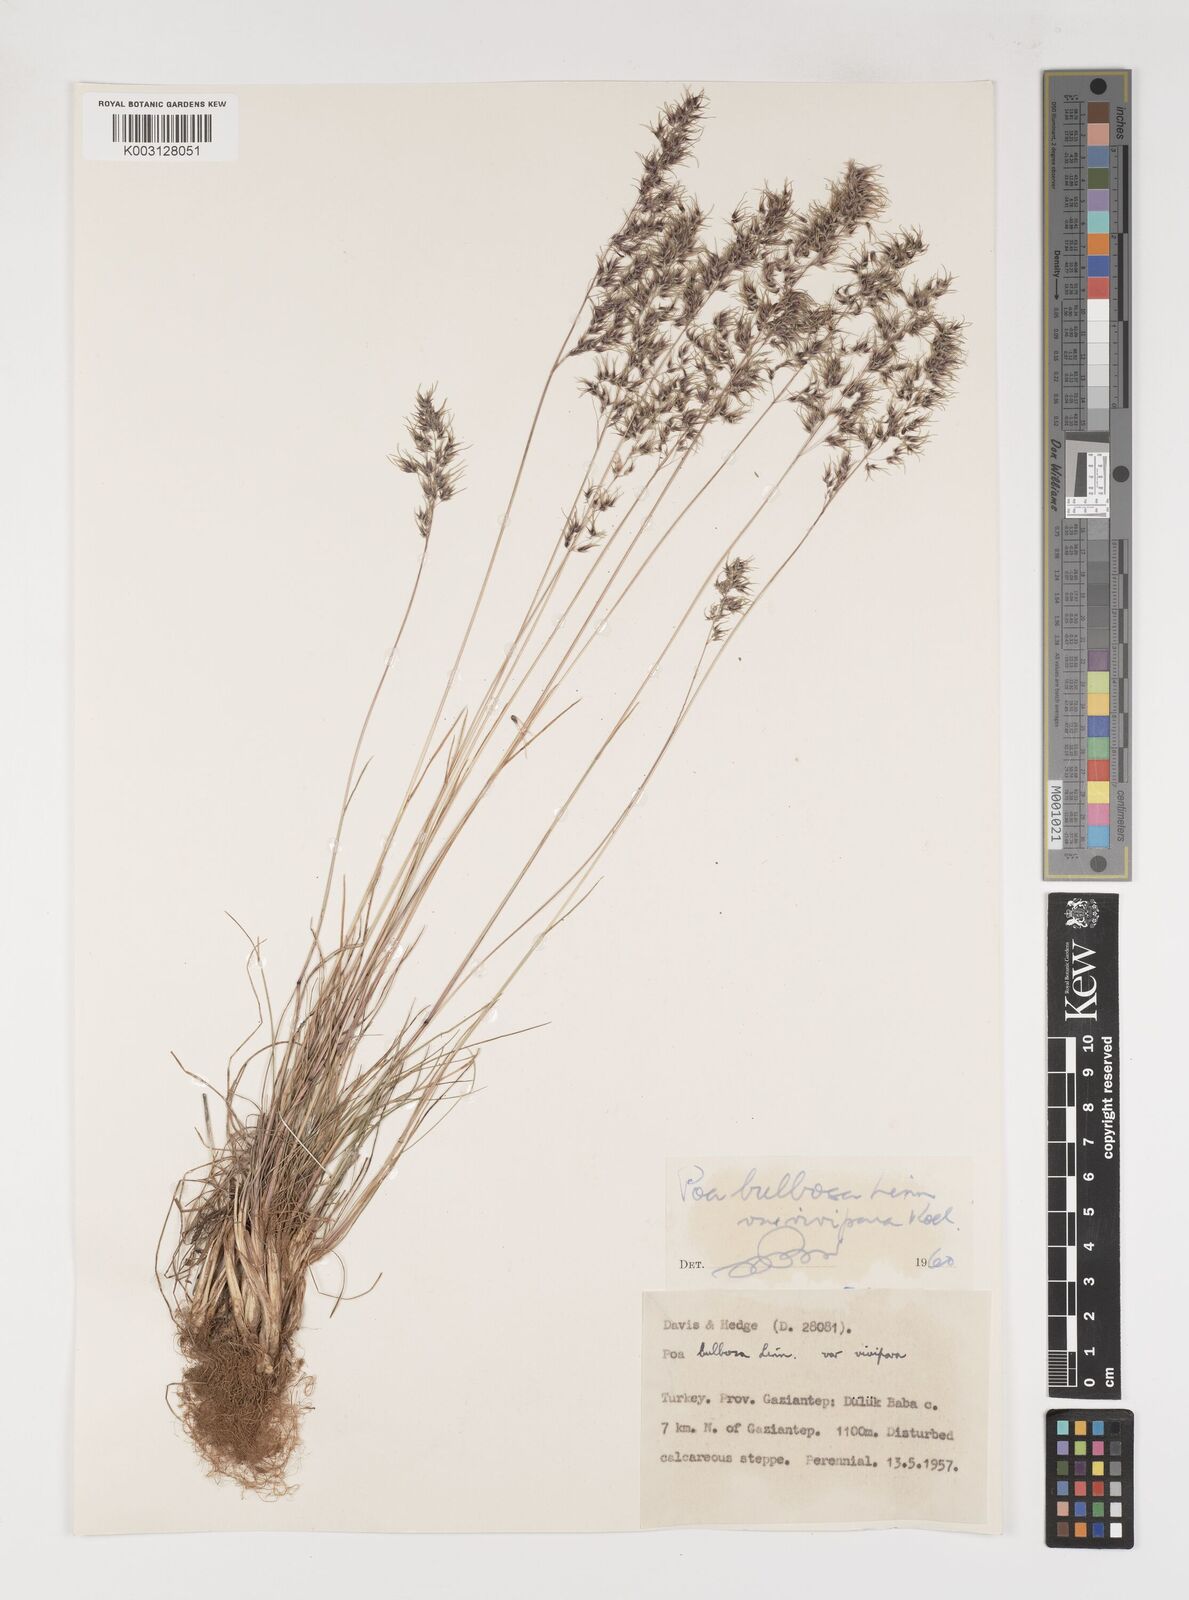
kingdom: Plantae
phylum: Tracheophyta
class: Liliopsida
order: Poales
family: Poaceae
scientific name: Poaceae
